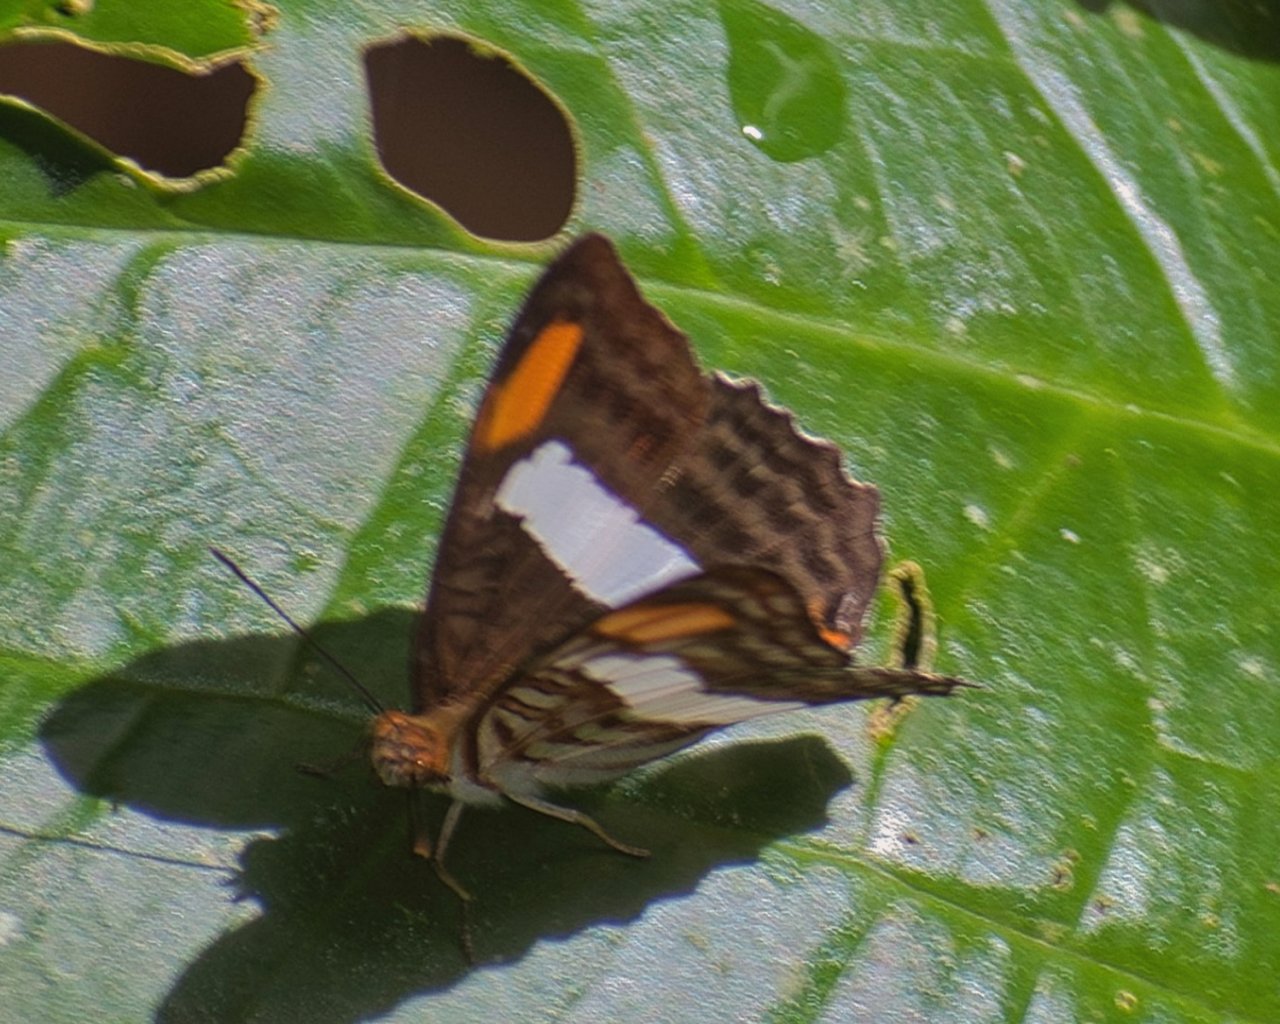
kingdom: Animalia
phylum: Arthropoda
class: Insecta
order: Lepidoptera
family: Nymphalidae
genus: Limenitis
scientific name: Limenitis Adelpha basiloides
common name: Spot-celled Sister
